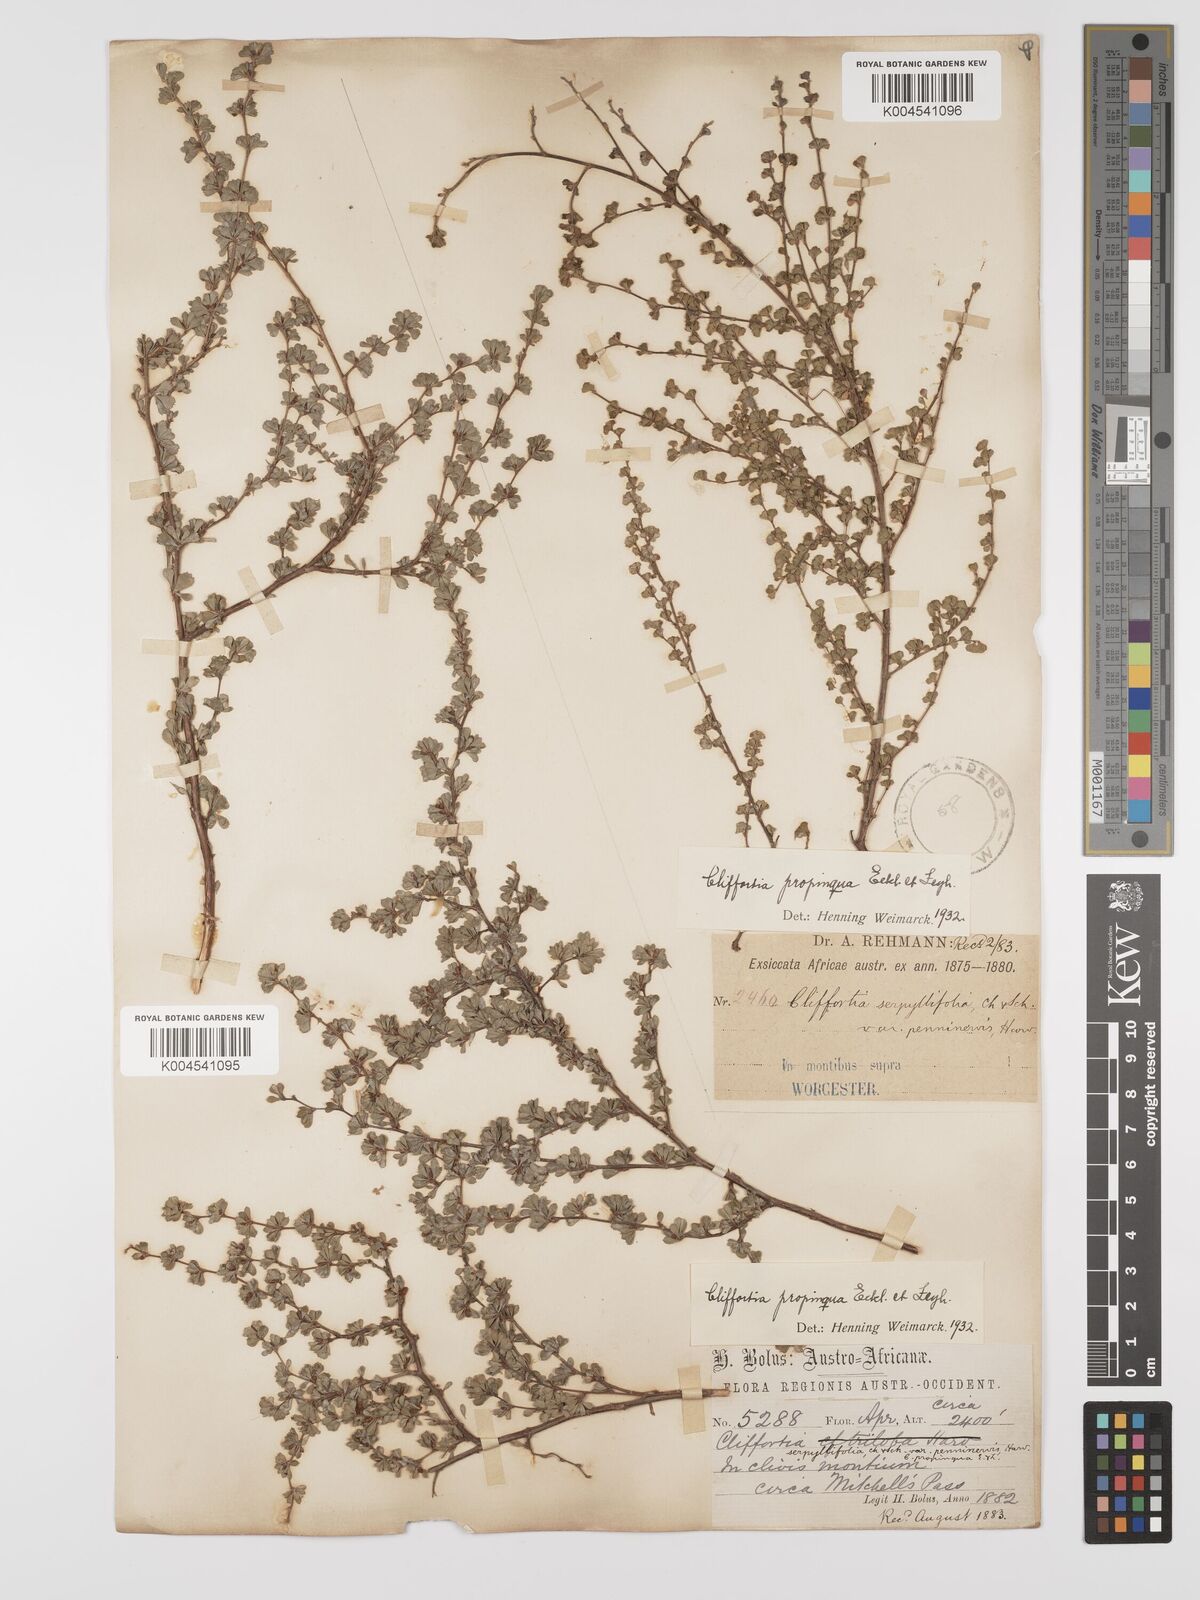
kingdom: Plantae
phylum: Tracheophyta
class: Magnoliopsida
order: Rosales
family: Rosaceae
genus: Cliffortia
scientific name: Cliffortia propinqua
